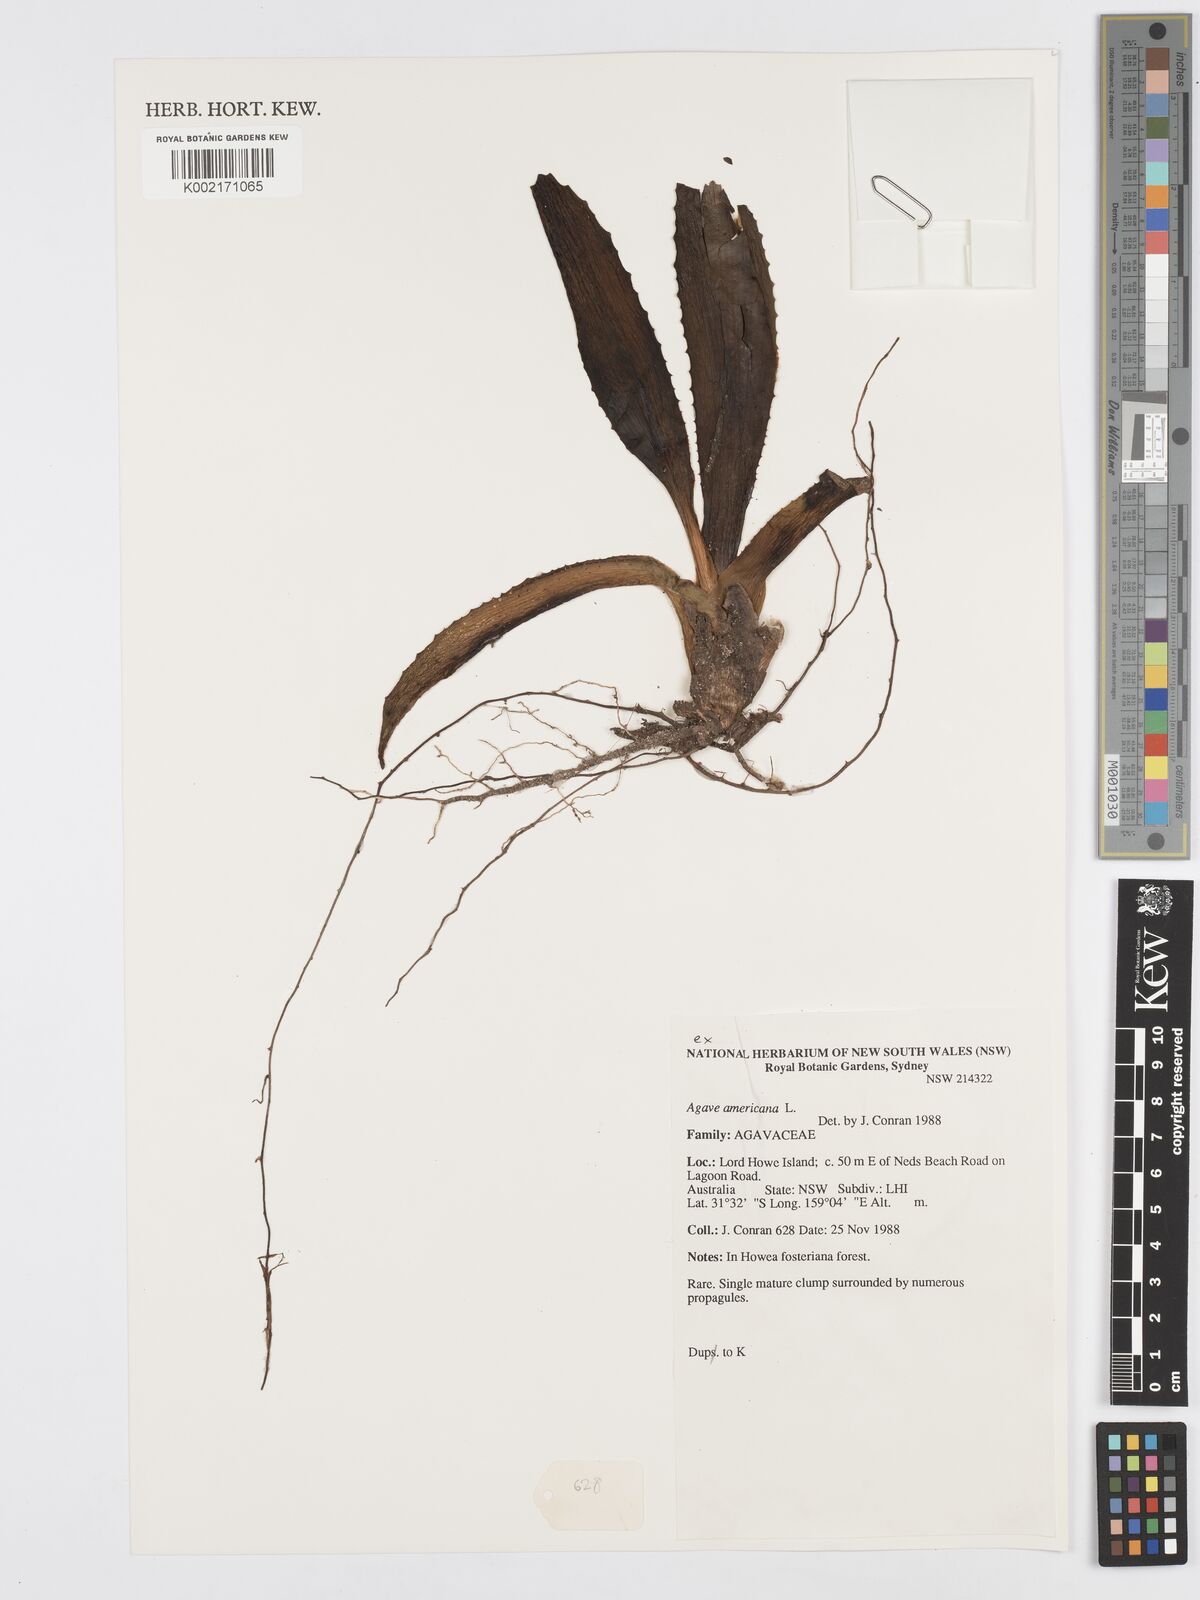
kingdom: Plantae
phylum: Tracheophyta
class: Liliopsida
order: Asparagales
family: Asparagaceae
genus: Agave
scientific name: Agave americana
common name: Centuryplant
